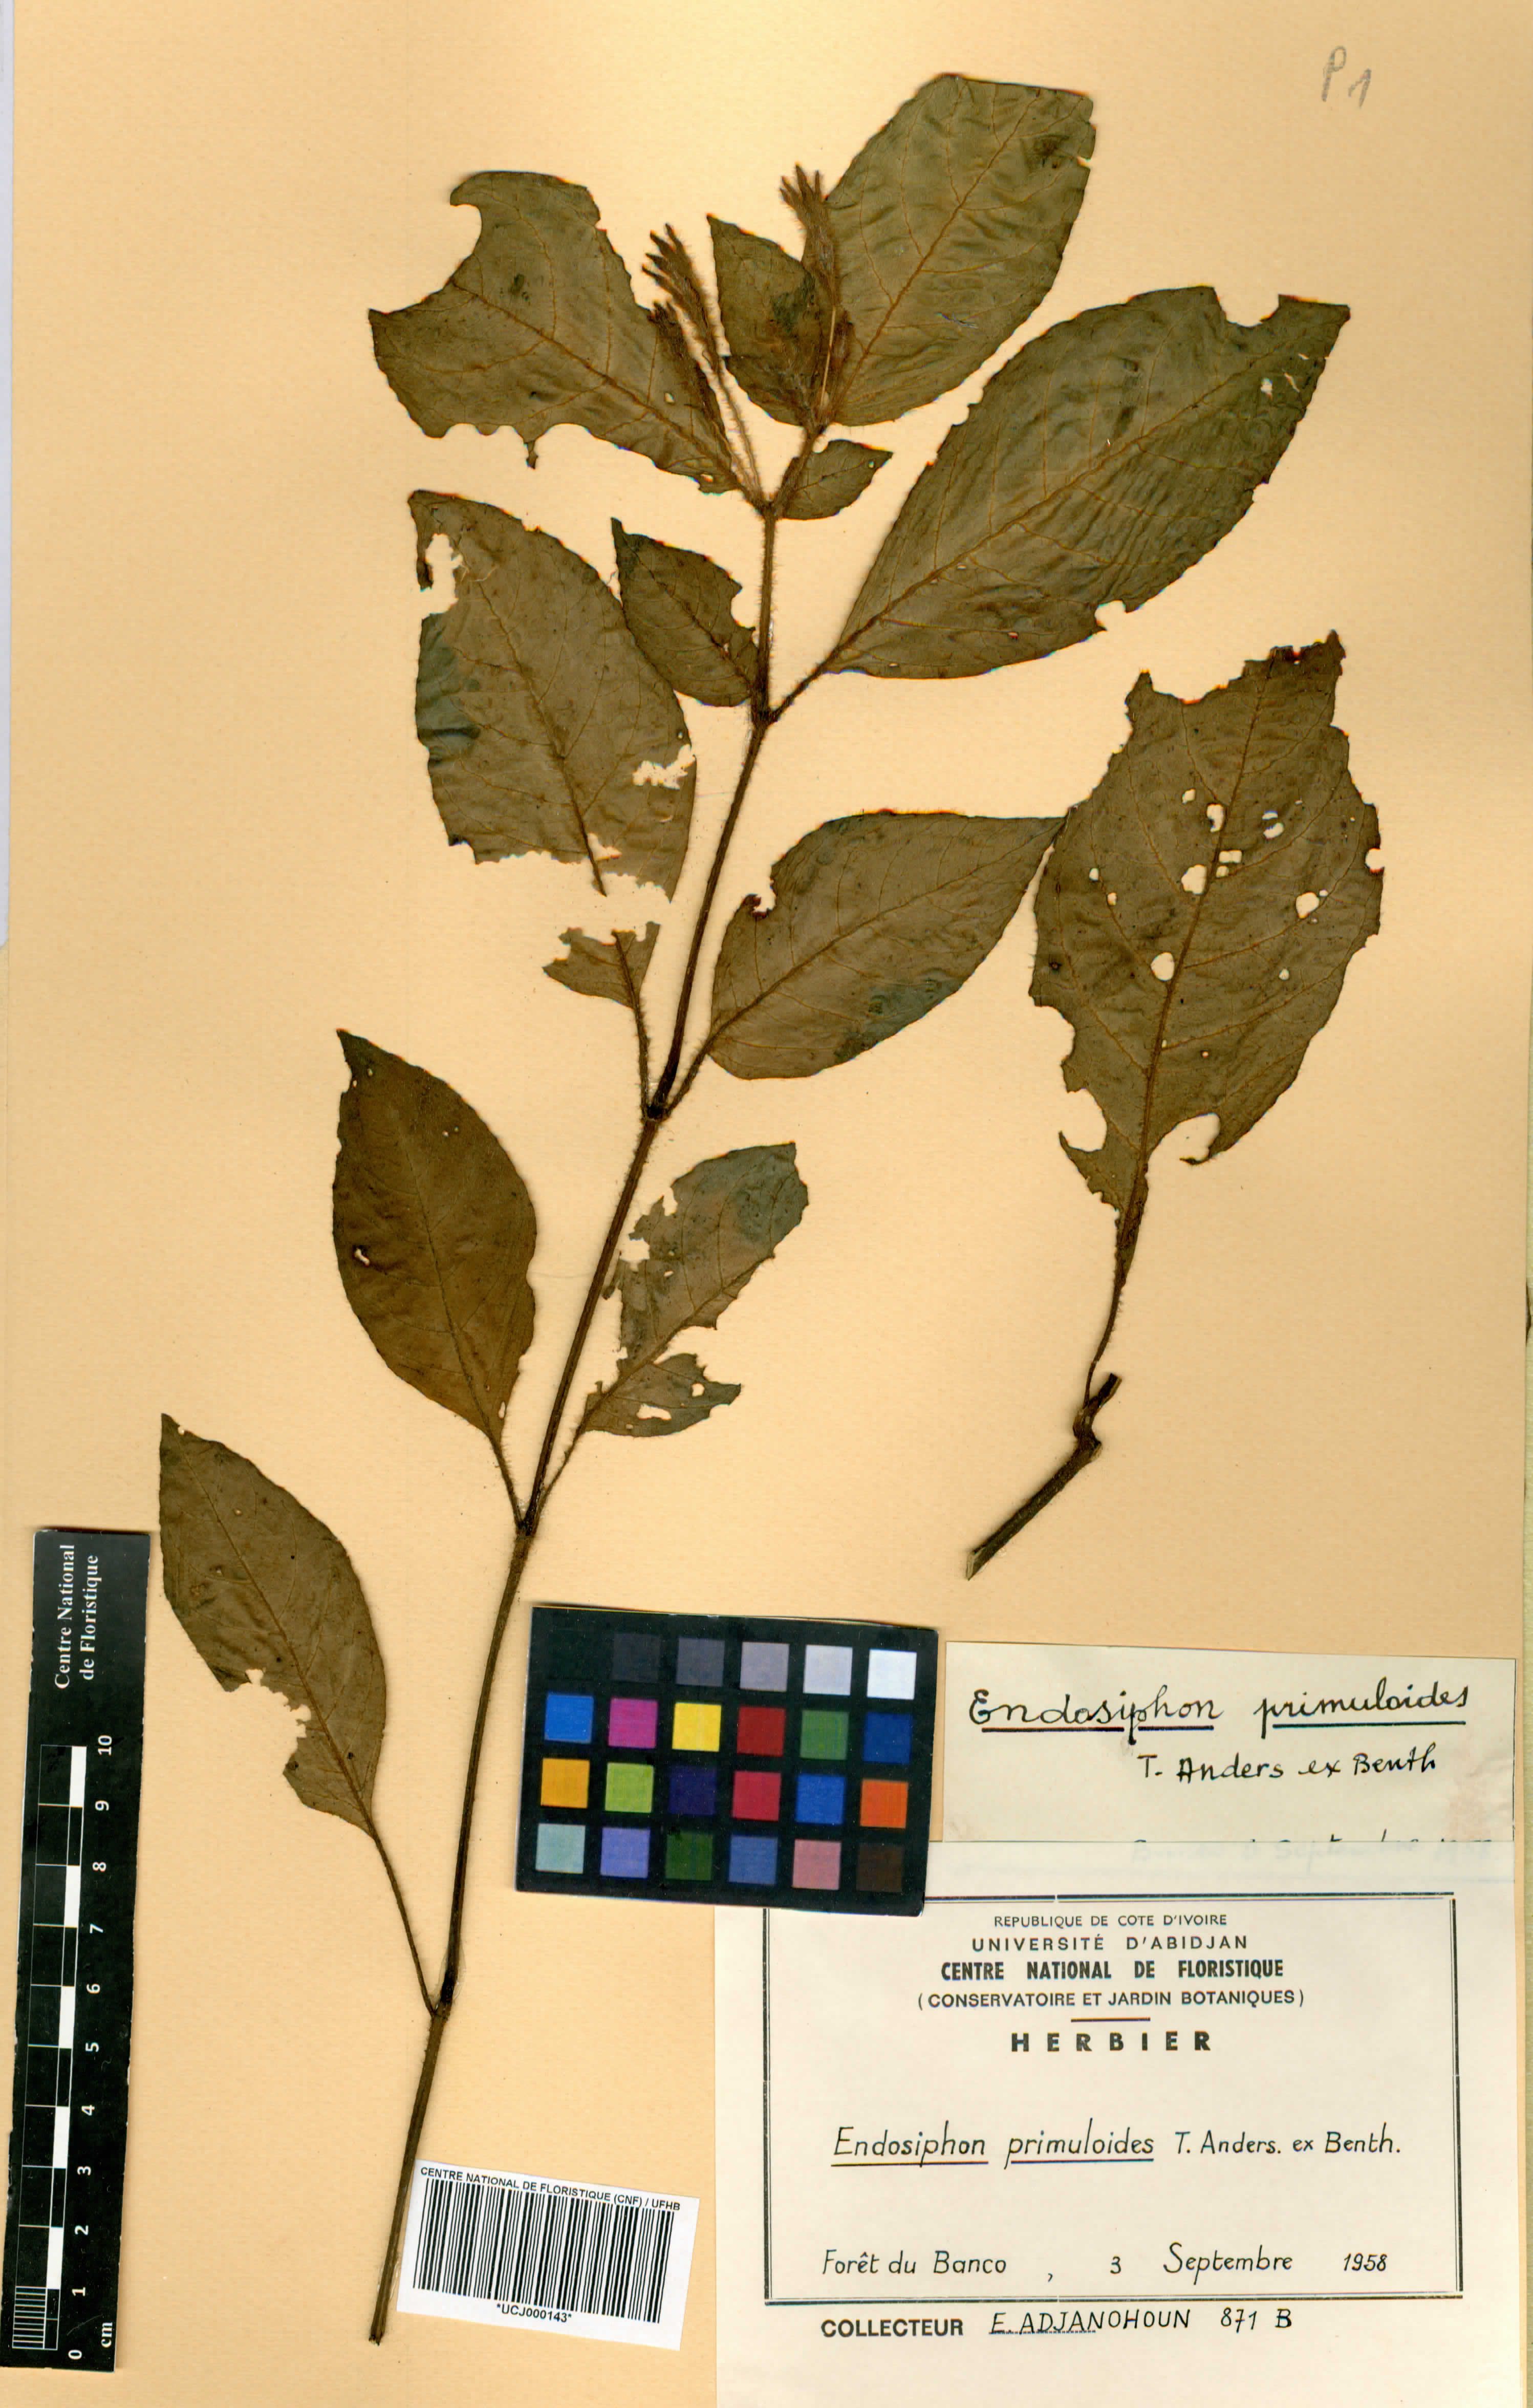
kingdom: Plantae
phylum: Tracheophyta
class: Magnoliopsida
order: Lamiales
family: Acanthaceae
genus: Ruellia
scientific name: Ruellia primuloides
